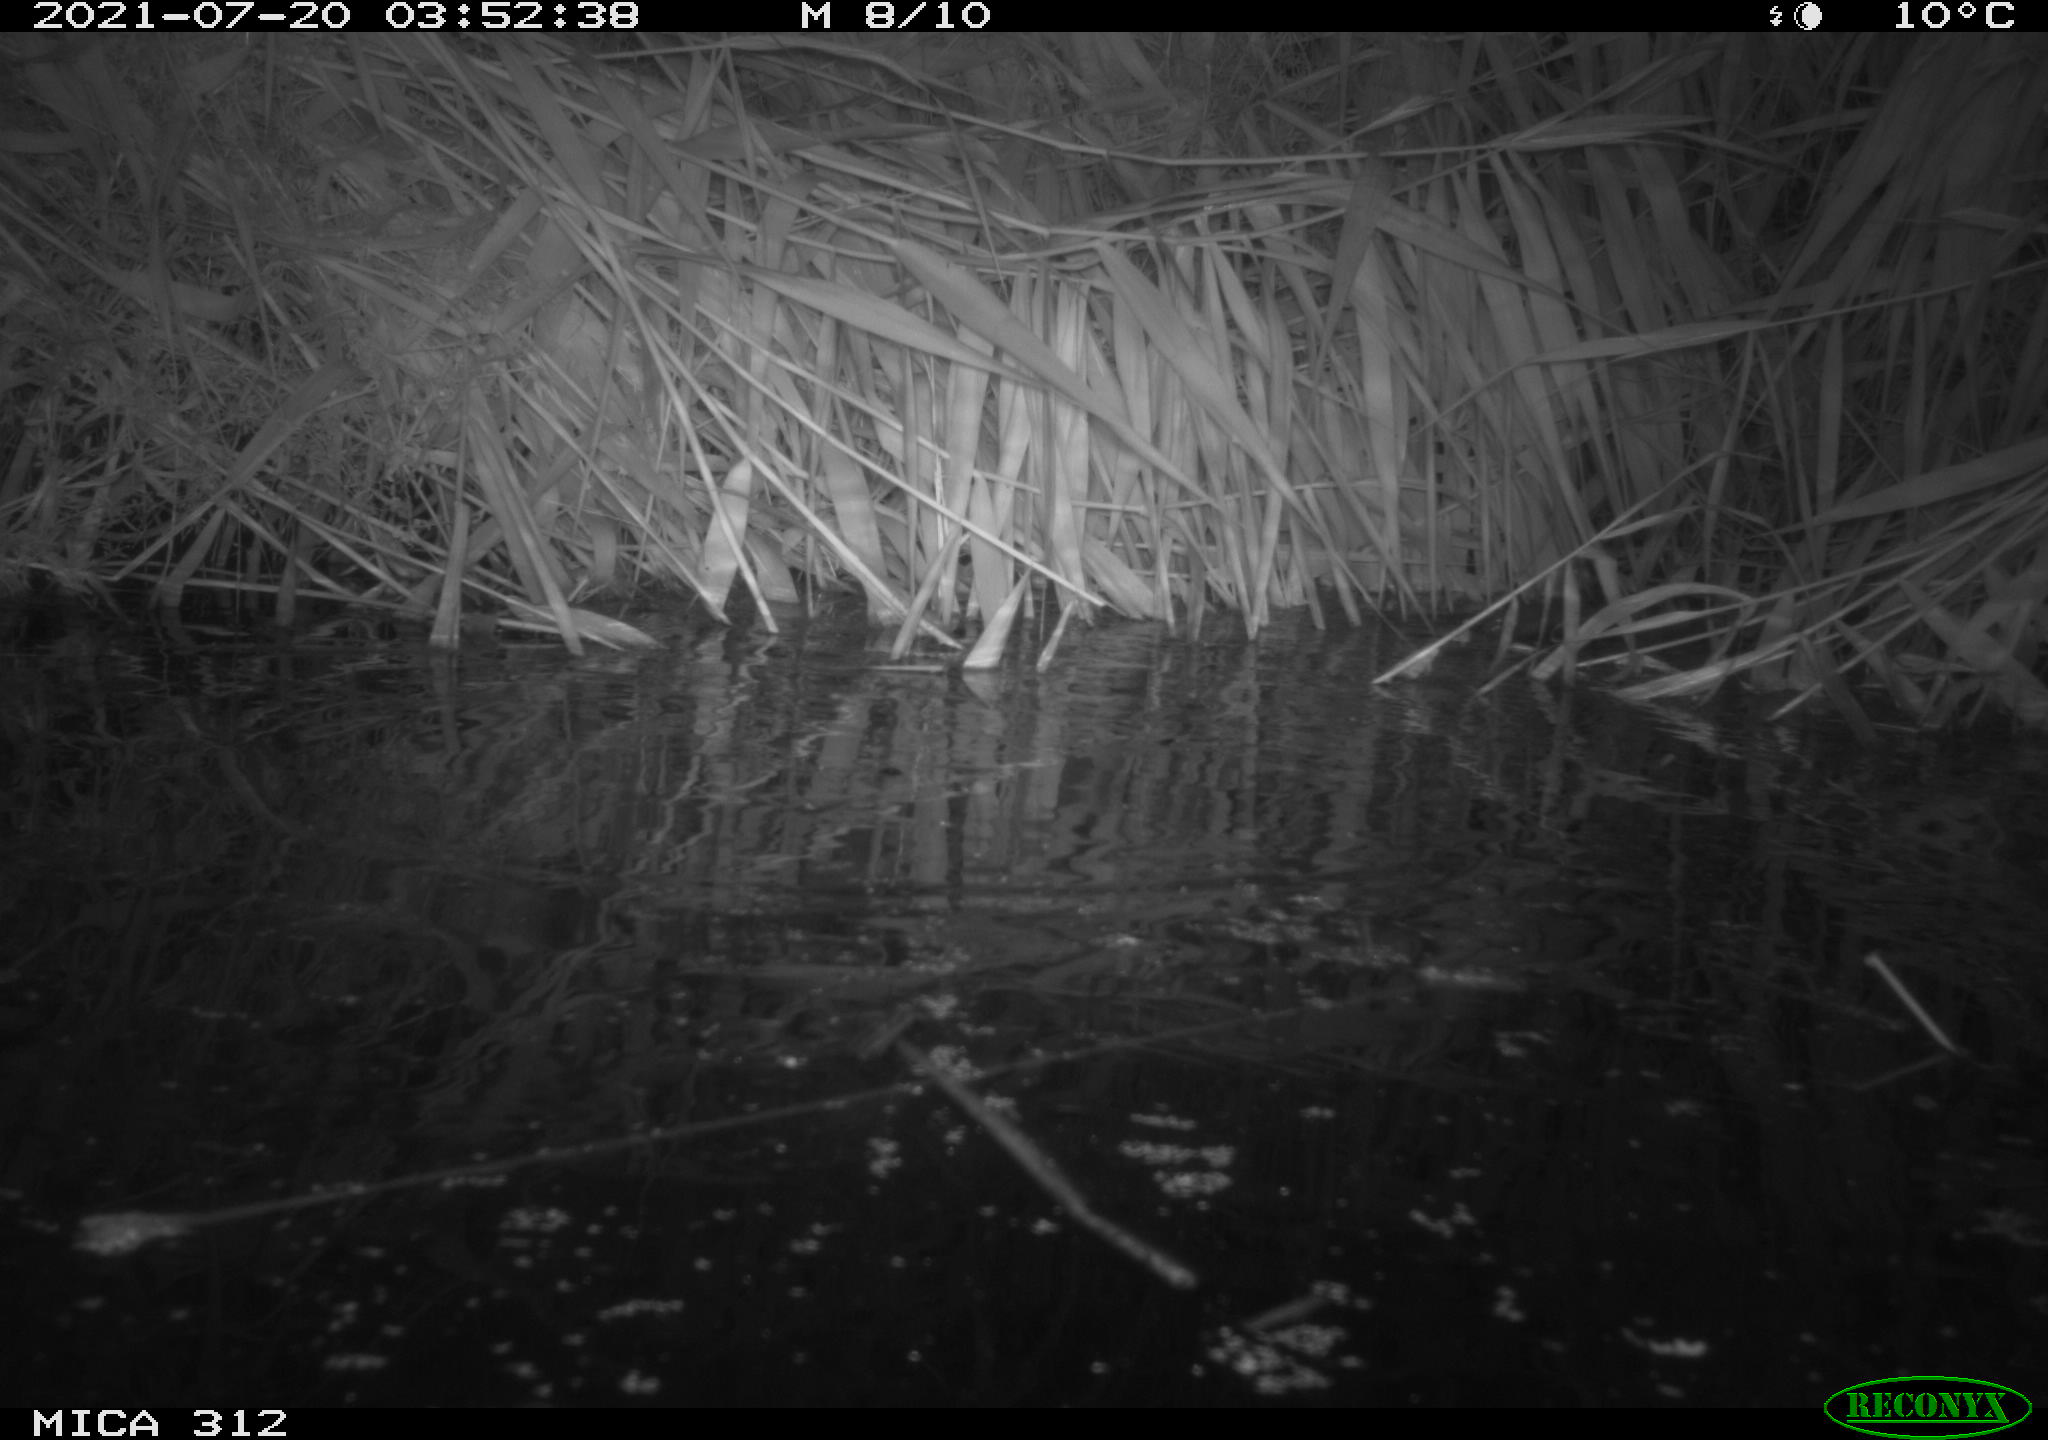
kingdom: Animalia
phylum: Chordata
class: Mammalia
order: Rodentia
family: Muridae
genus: Rattus
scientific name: Rattus norvegicus
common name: Brown rat
